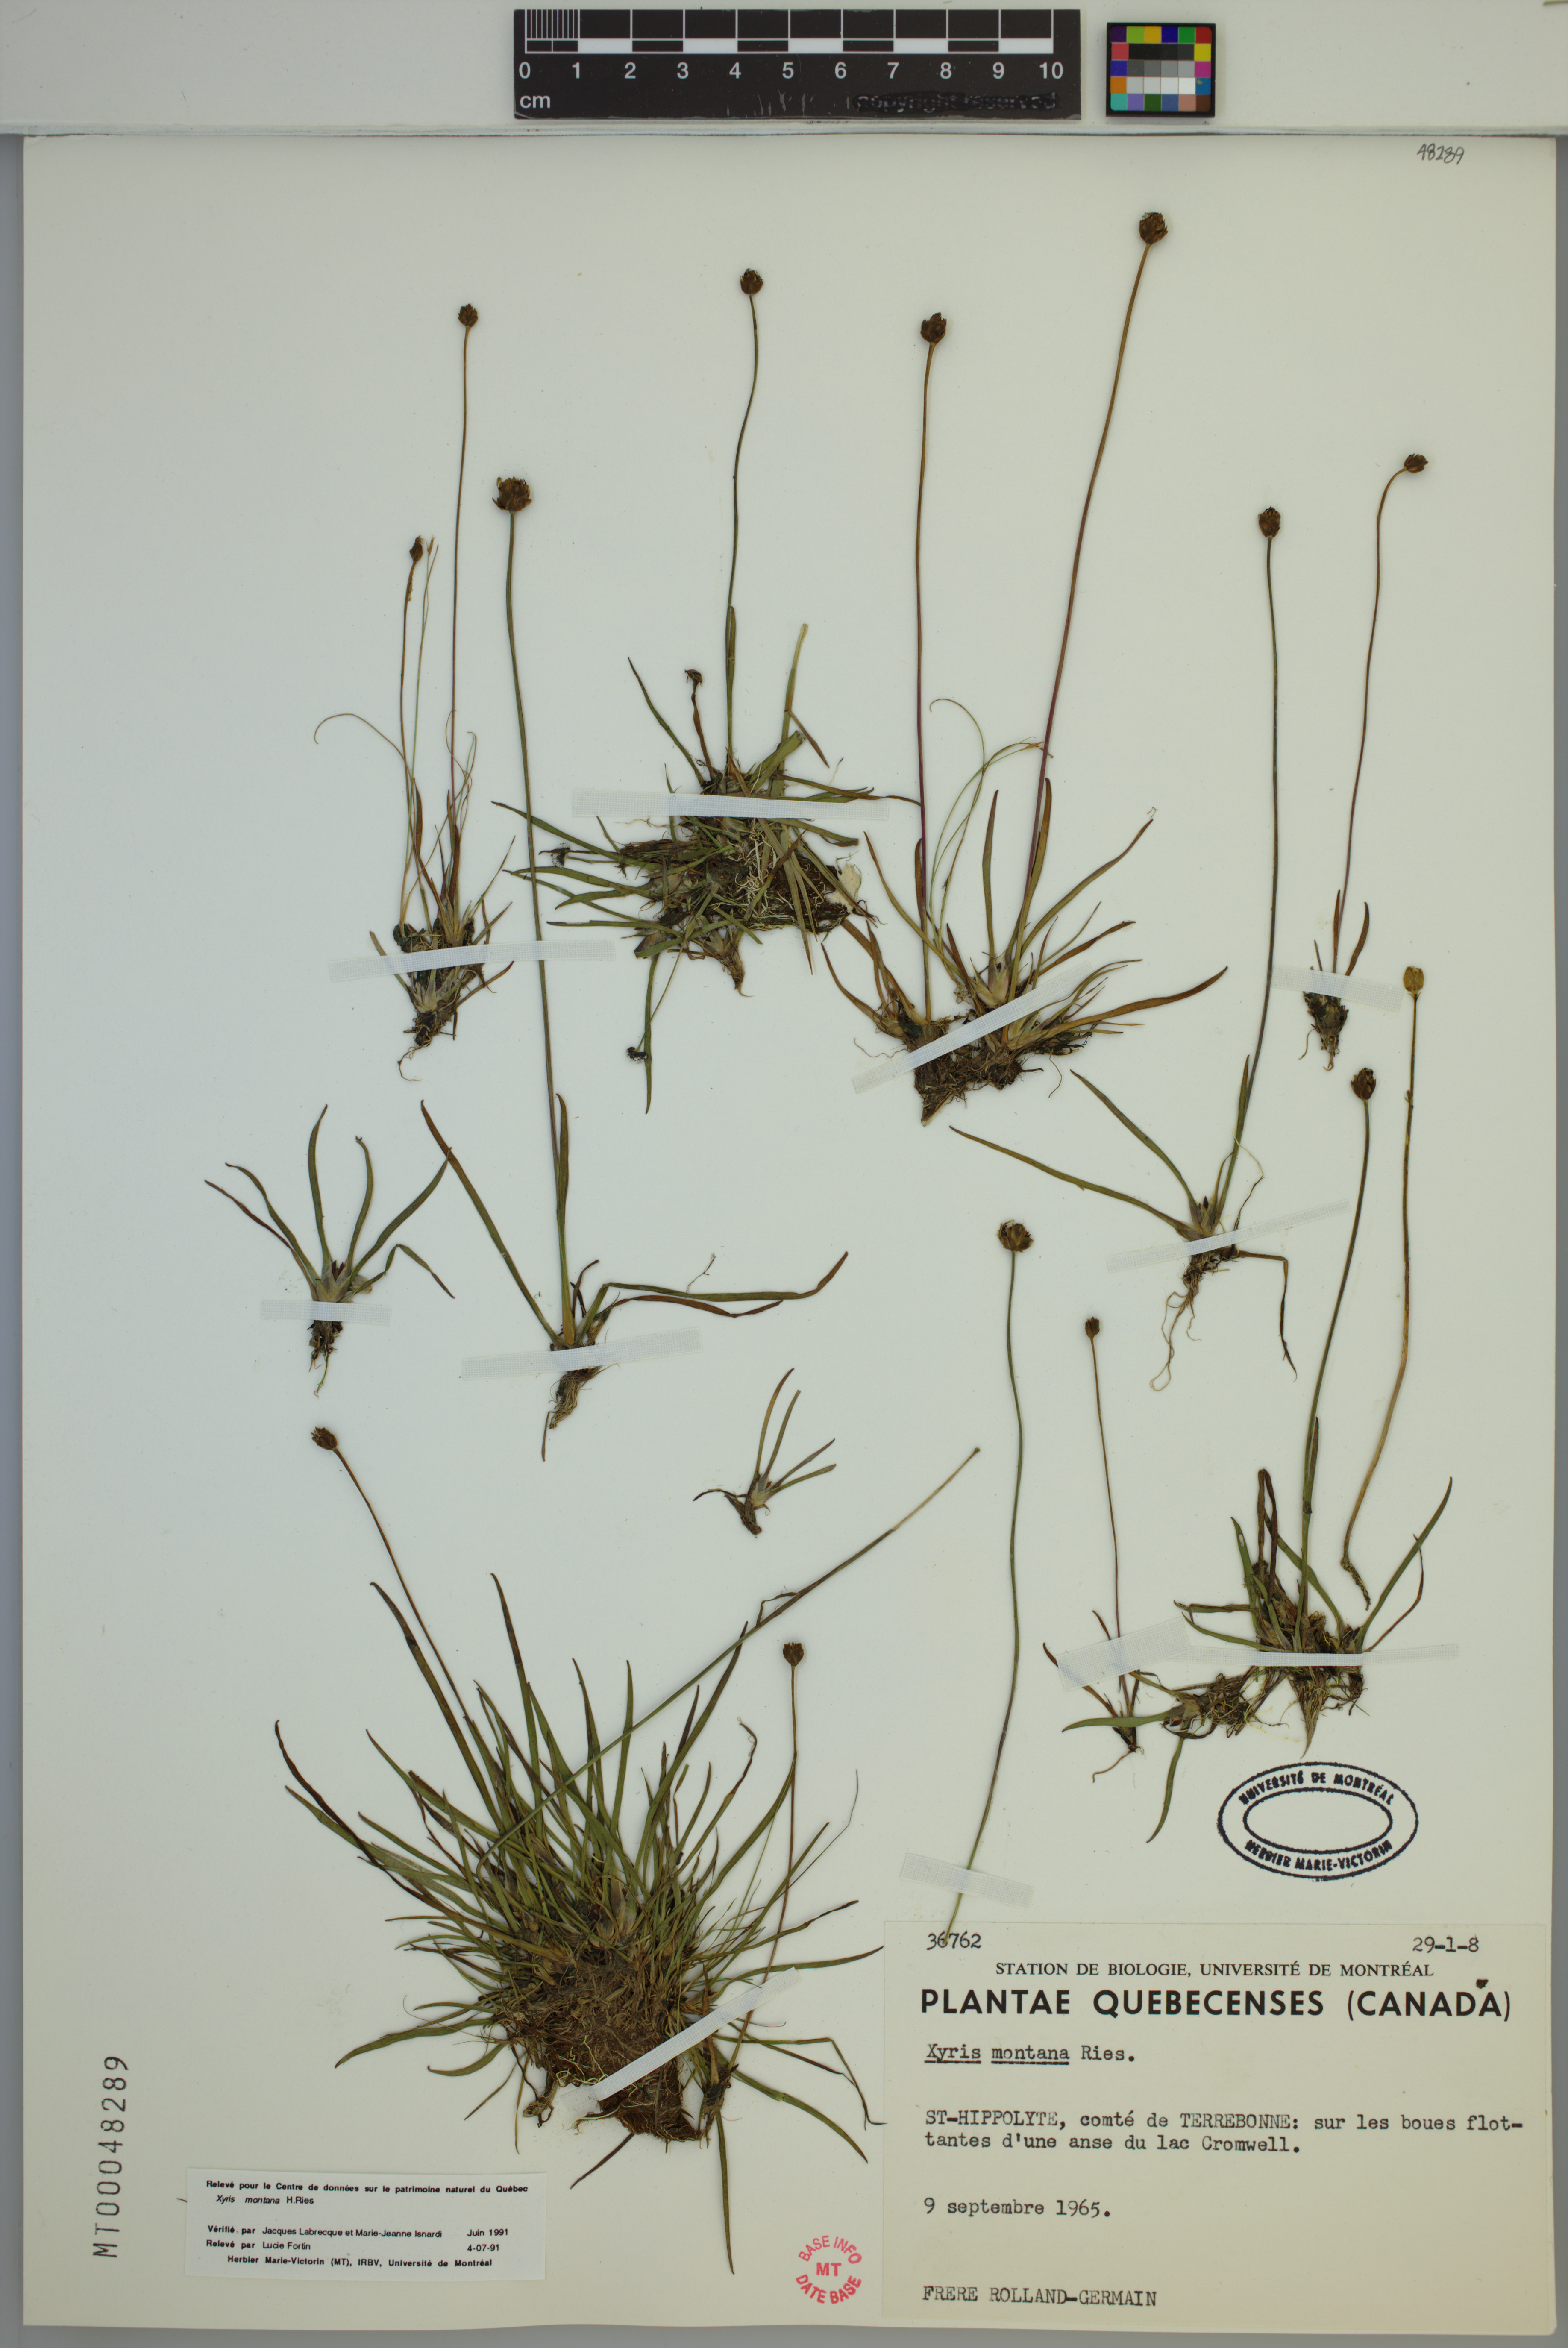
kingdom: Plantae
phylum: Tracheophyta
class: Liliopsida
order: Poales
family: Xyridaceae
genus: Xyris
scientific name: Xyris montana
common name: Northern yellow-eyed-grass
